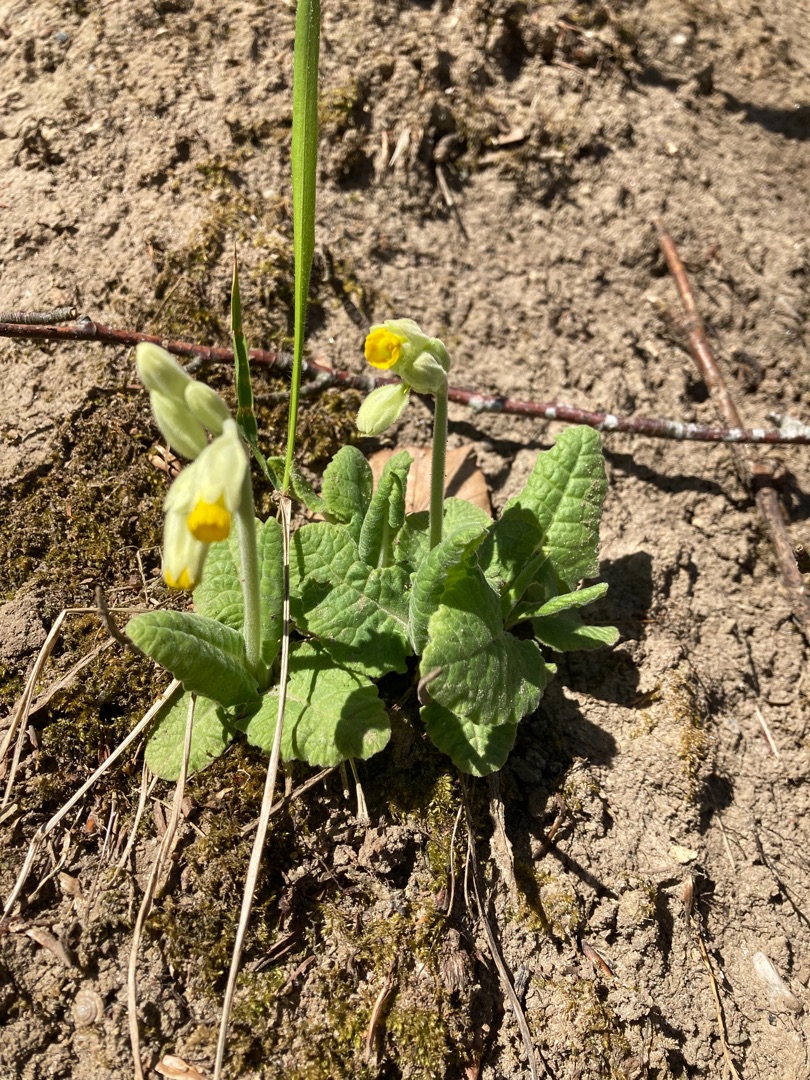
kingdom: Plantae
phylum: Tracheophyta
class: Magnoliopsida
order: Ericales
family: Primulaceae
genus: Primula
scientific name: Primula veris
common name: Hulkravet kodriver
